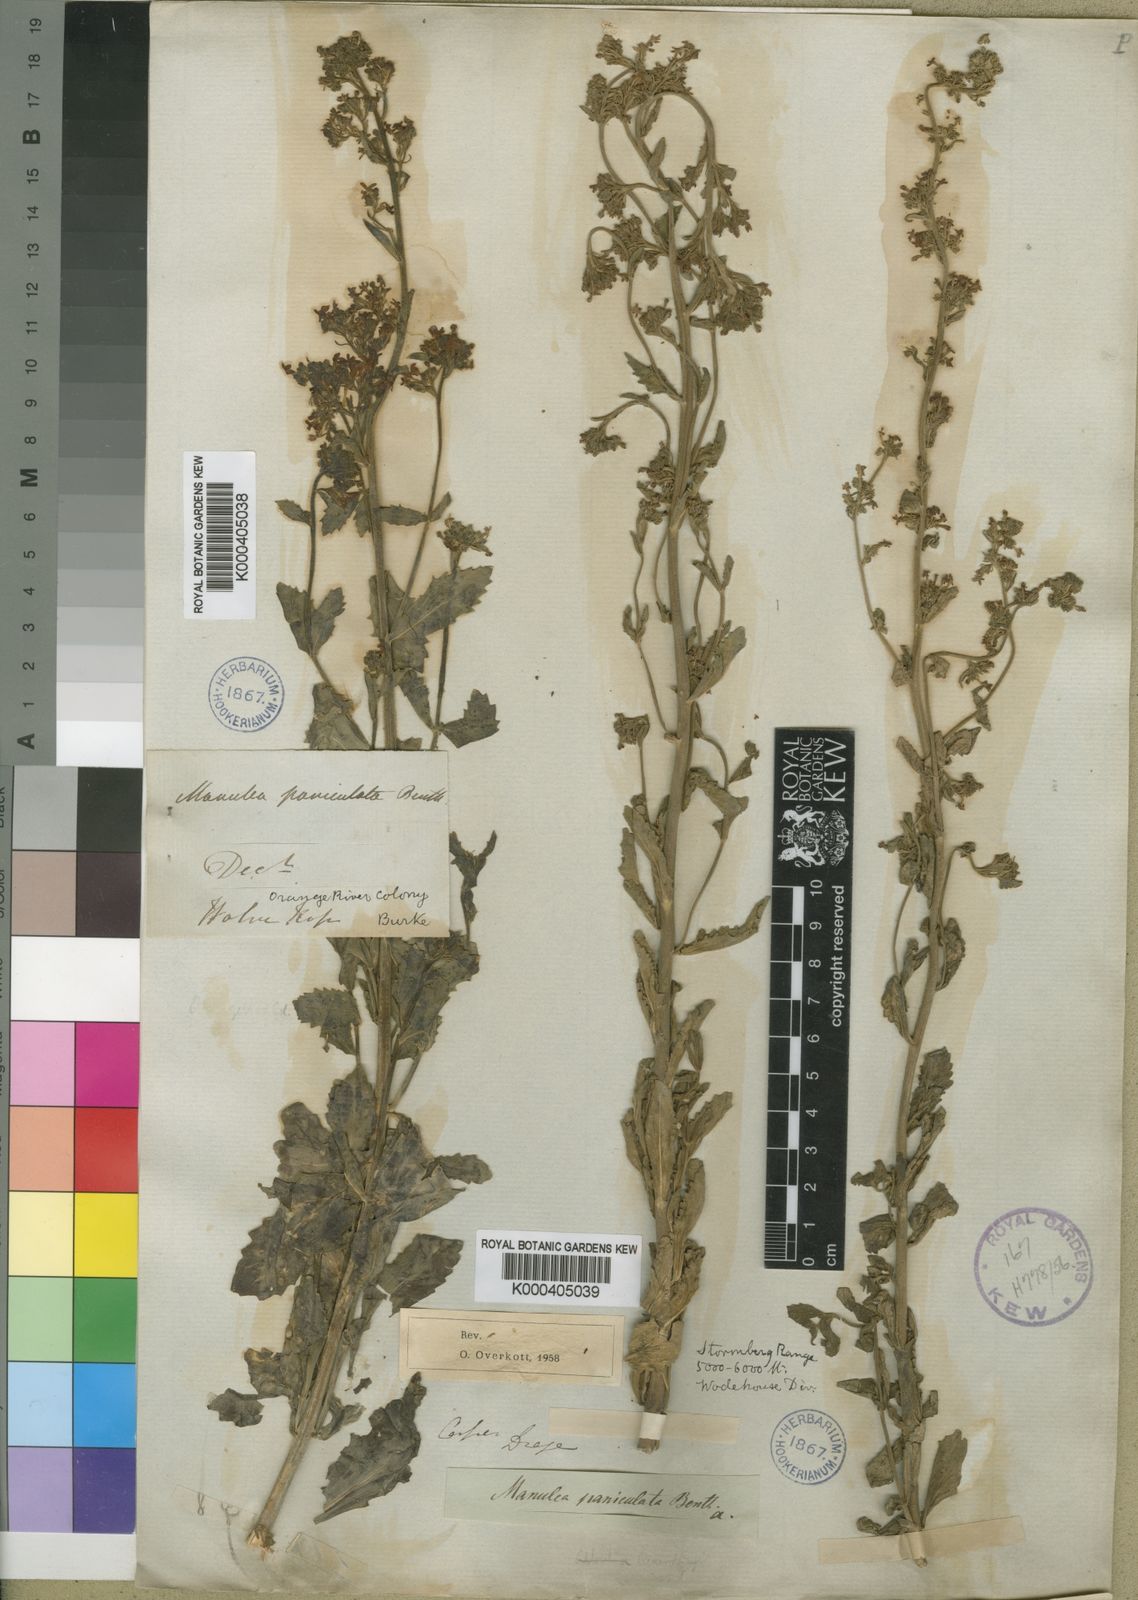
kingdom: Plantae
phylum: Tracheophyta
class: Magnoliopsida
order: Lamiales
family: Scrophulariaceae
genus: Manulea
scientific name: Manulea paniculata
